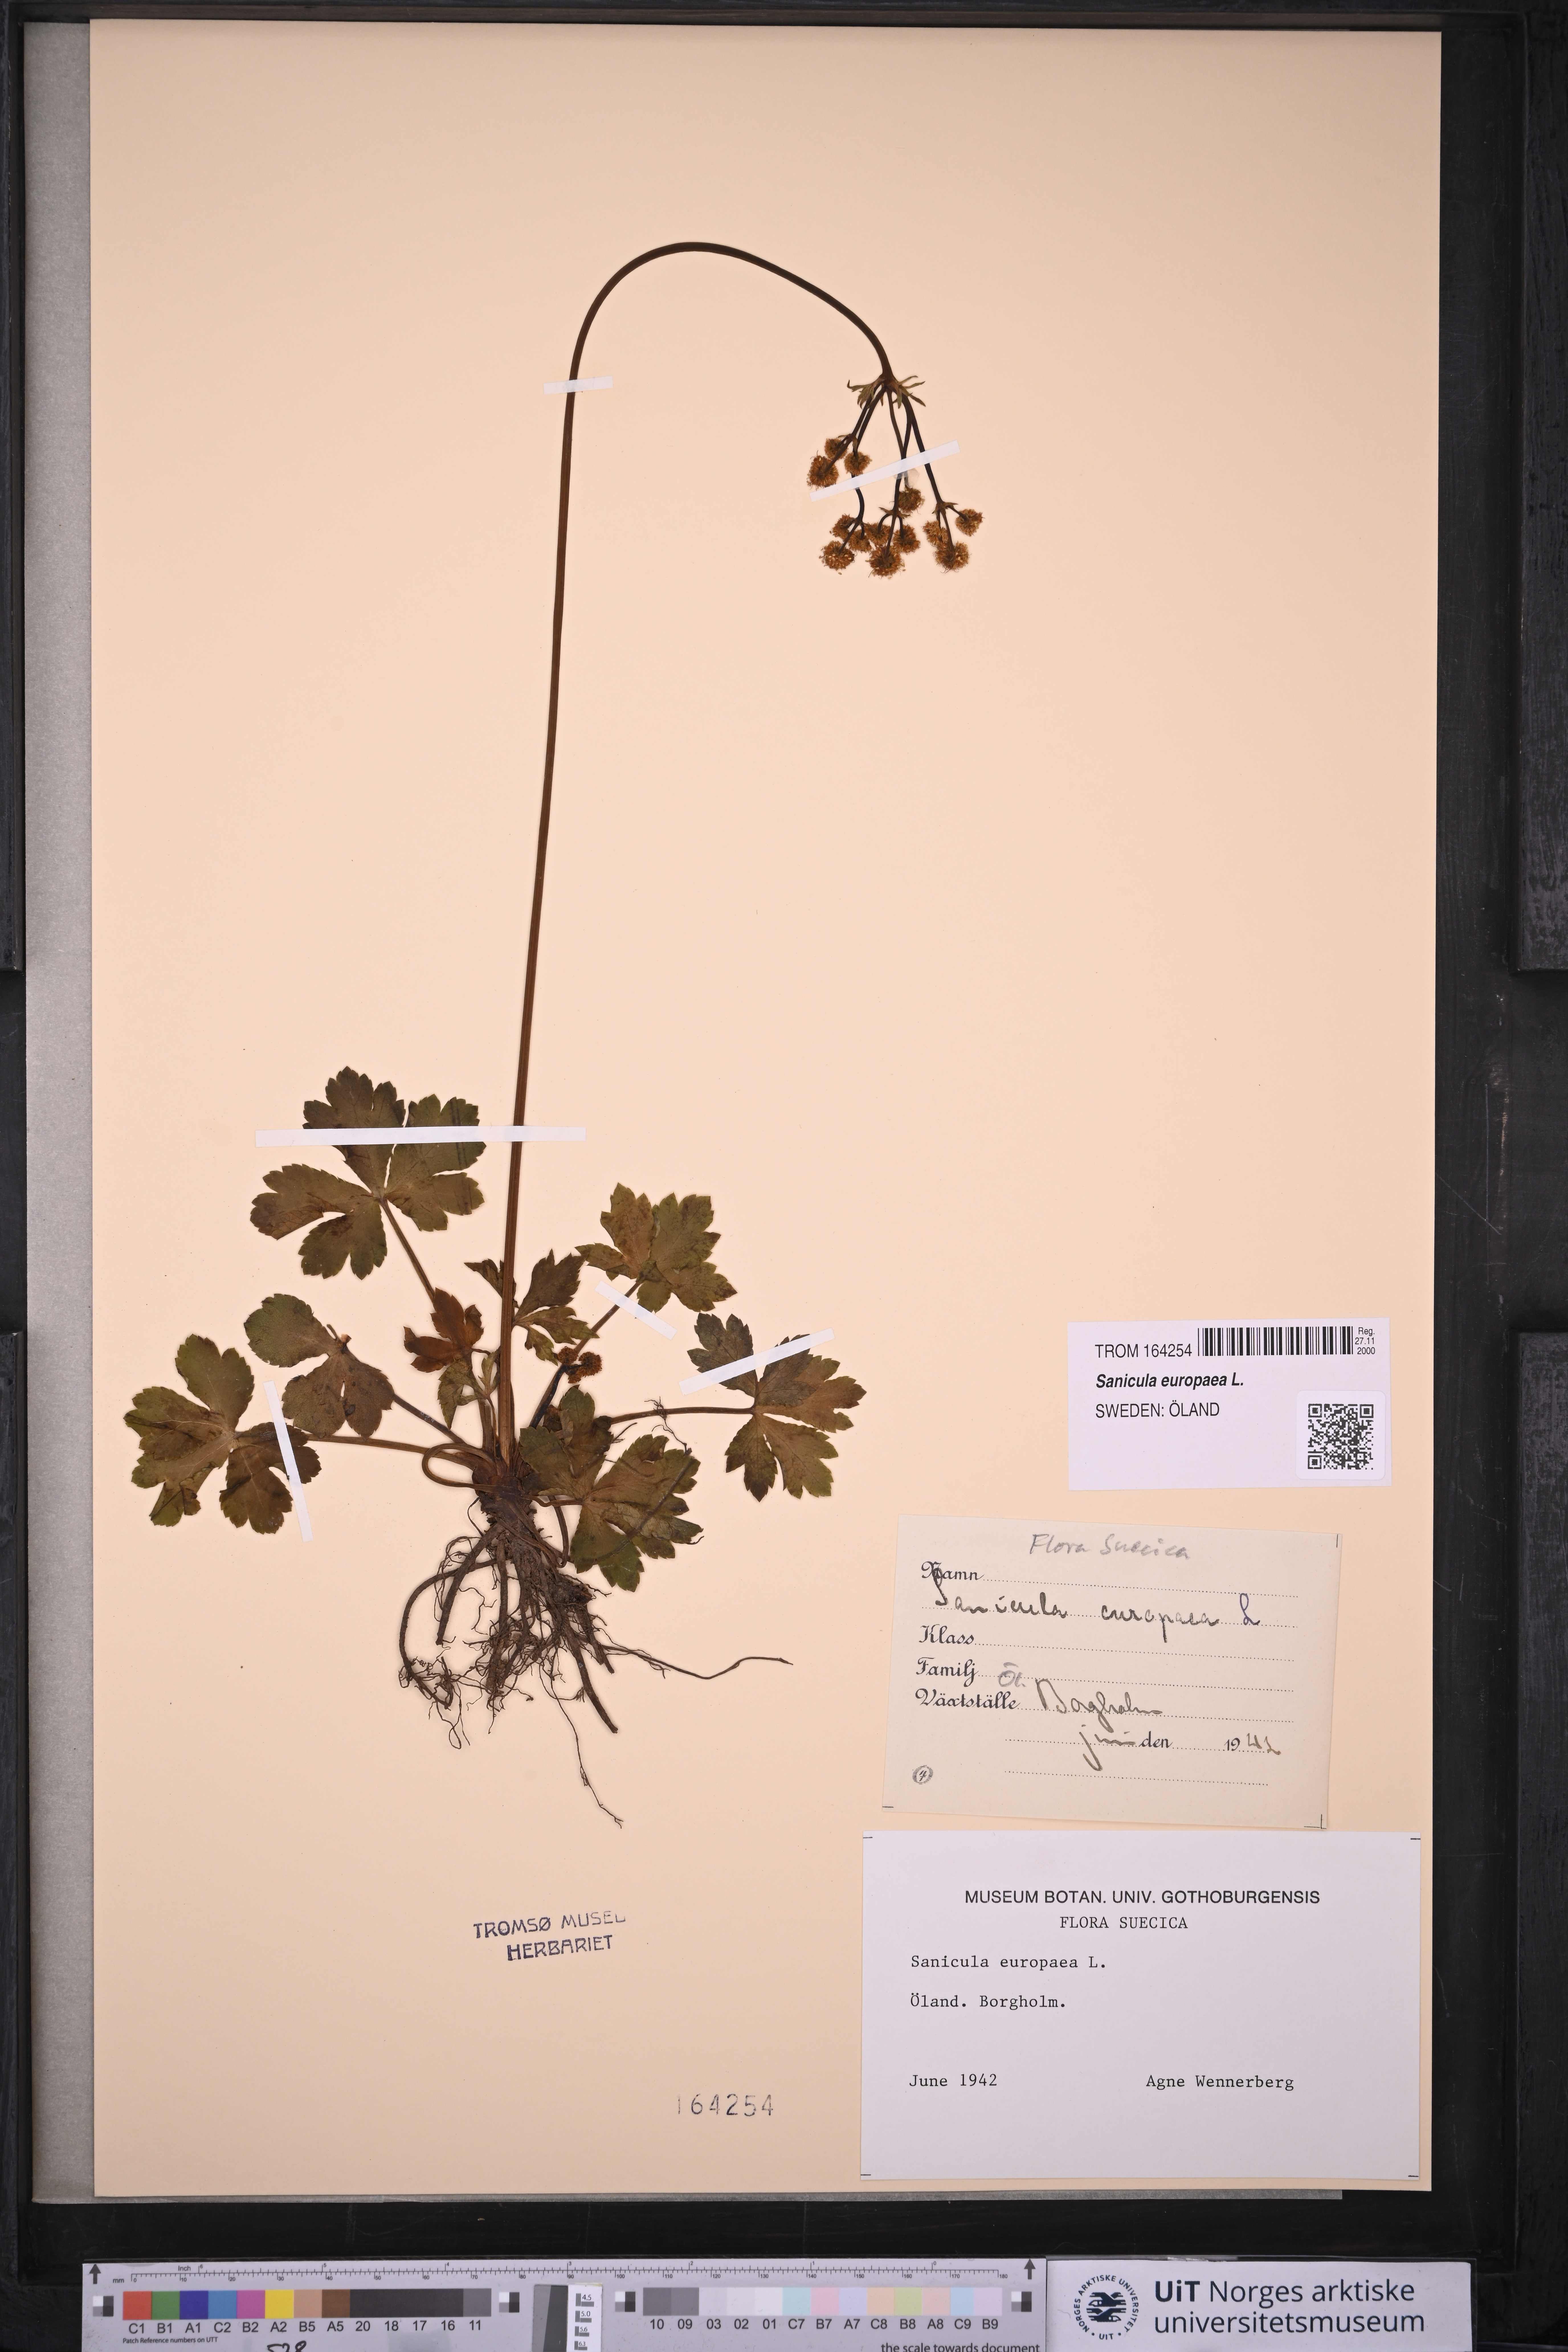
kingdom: Plantae
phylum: Tracheophyta
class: Magnoliopsida
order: Apiales
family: Apiaceae
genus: Sanicula
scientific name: Sanicula europaea
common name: Sanicle
